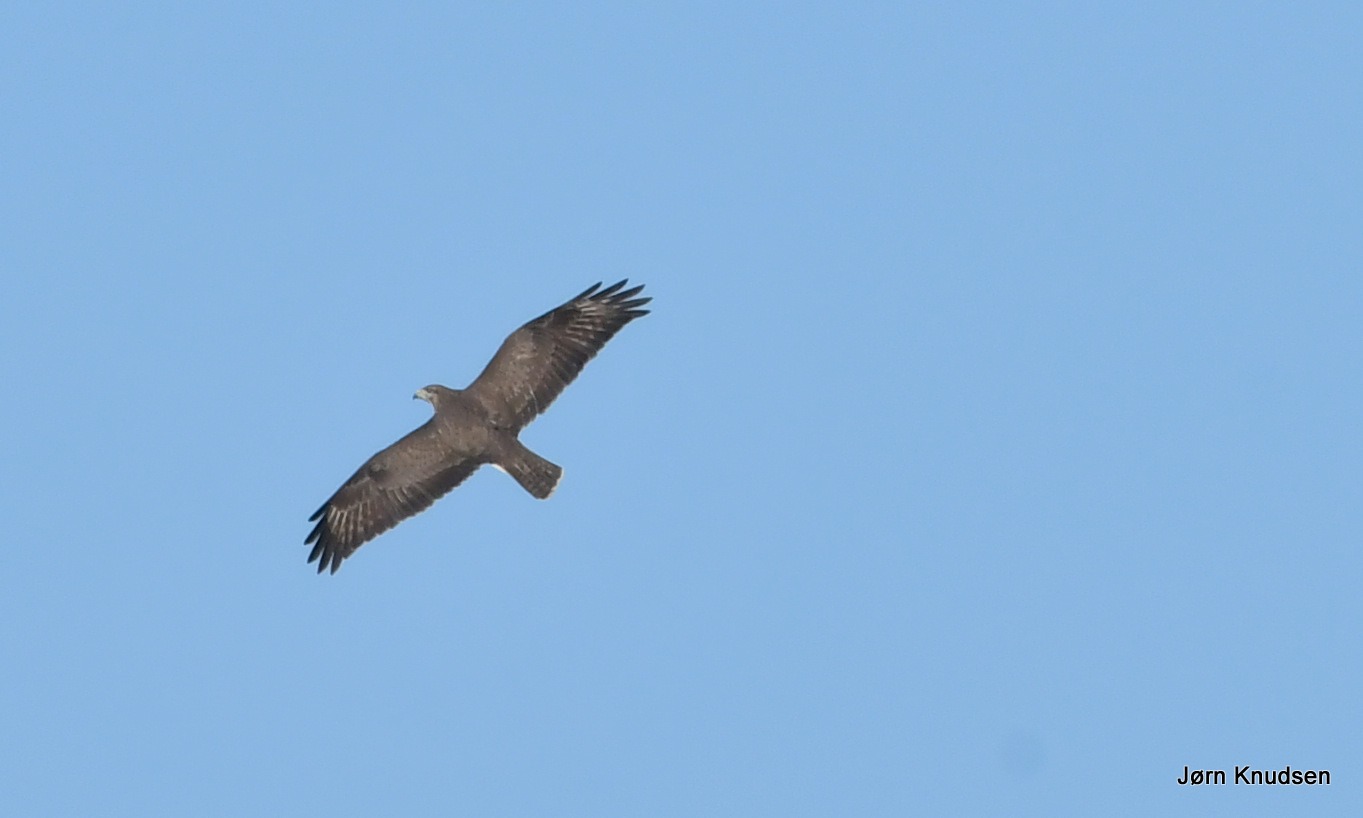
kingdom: Animalia
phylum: Chordata
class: Aves
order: Accipitriformes
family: Accipitridae
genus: Pernis
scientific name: Pernis apivorus
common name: Hvepsevåge
